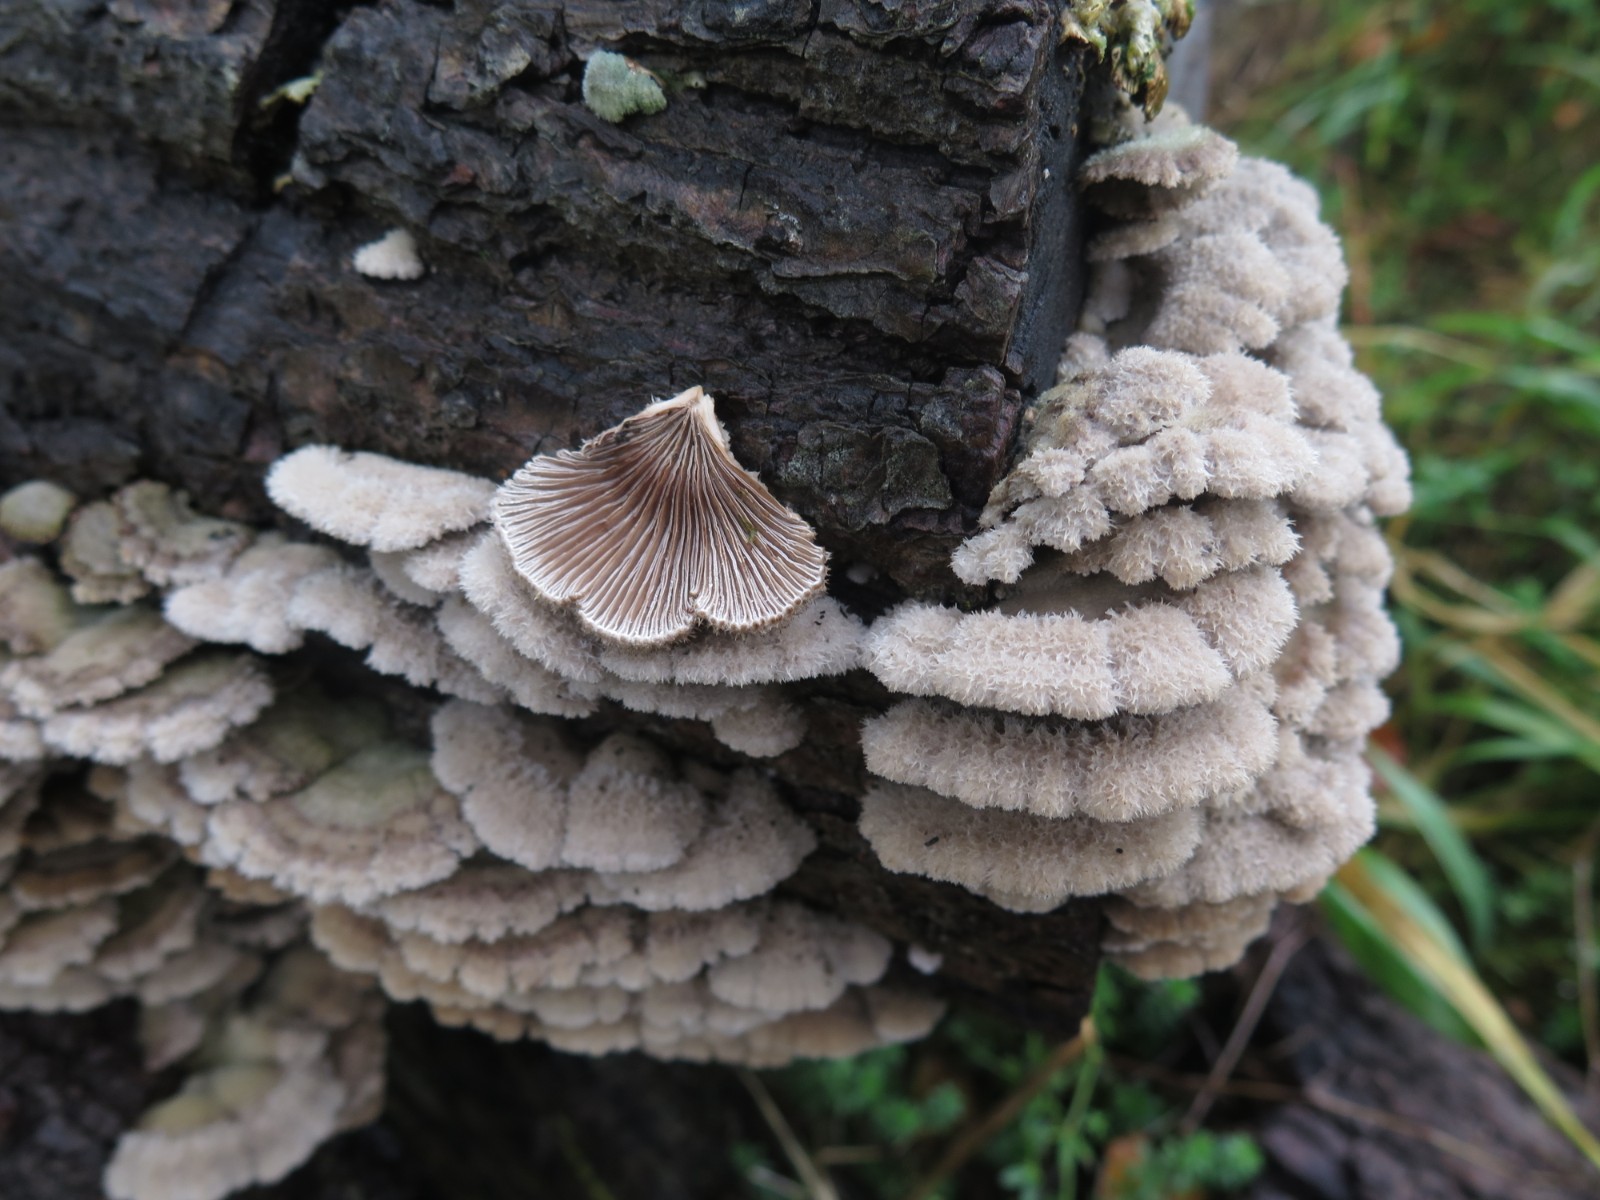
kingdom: Fungi
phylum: Basidiomycota
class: Agaricomycetes
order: Agaricales
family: Schizophyllaceae
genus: Schizophyllum
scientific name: Schizophyllum commune
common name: kløvblad
